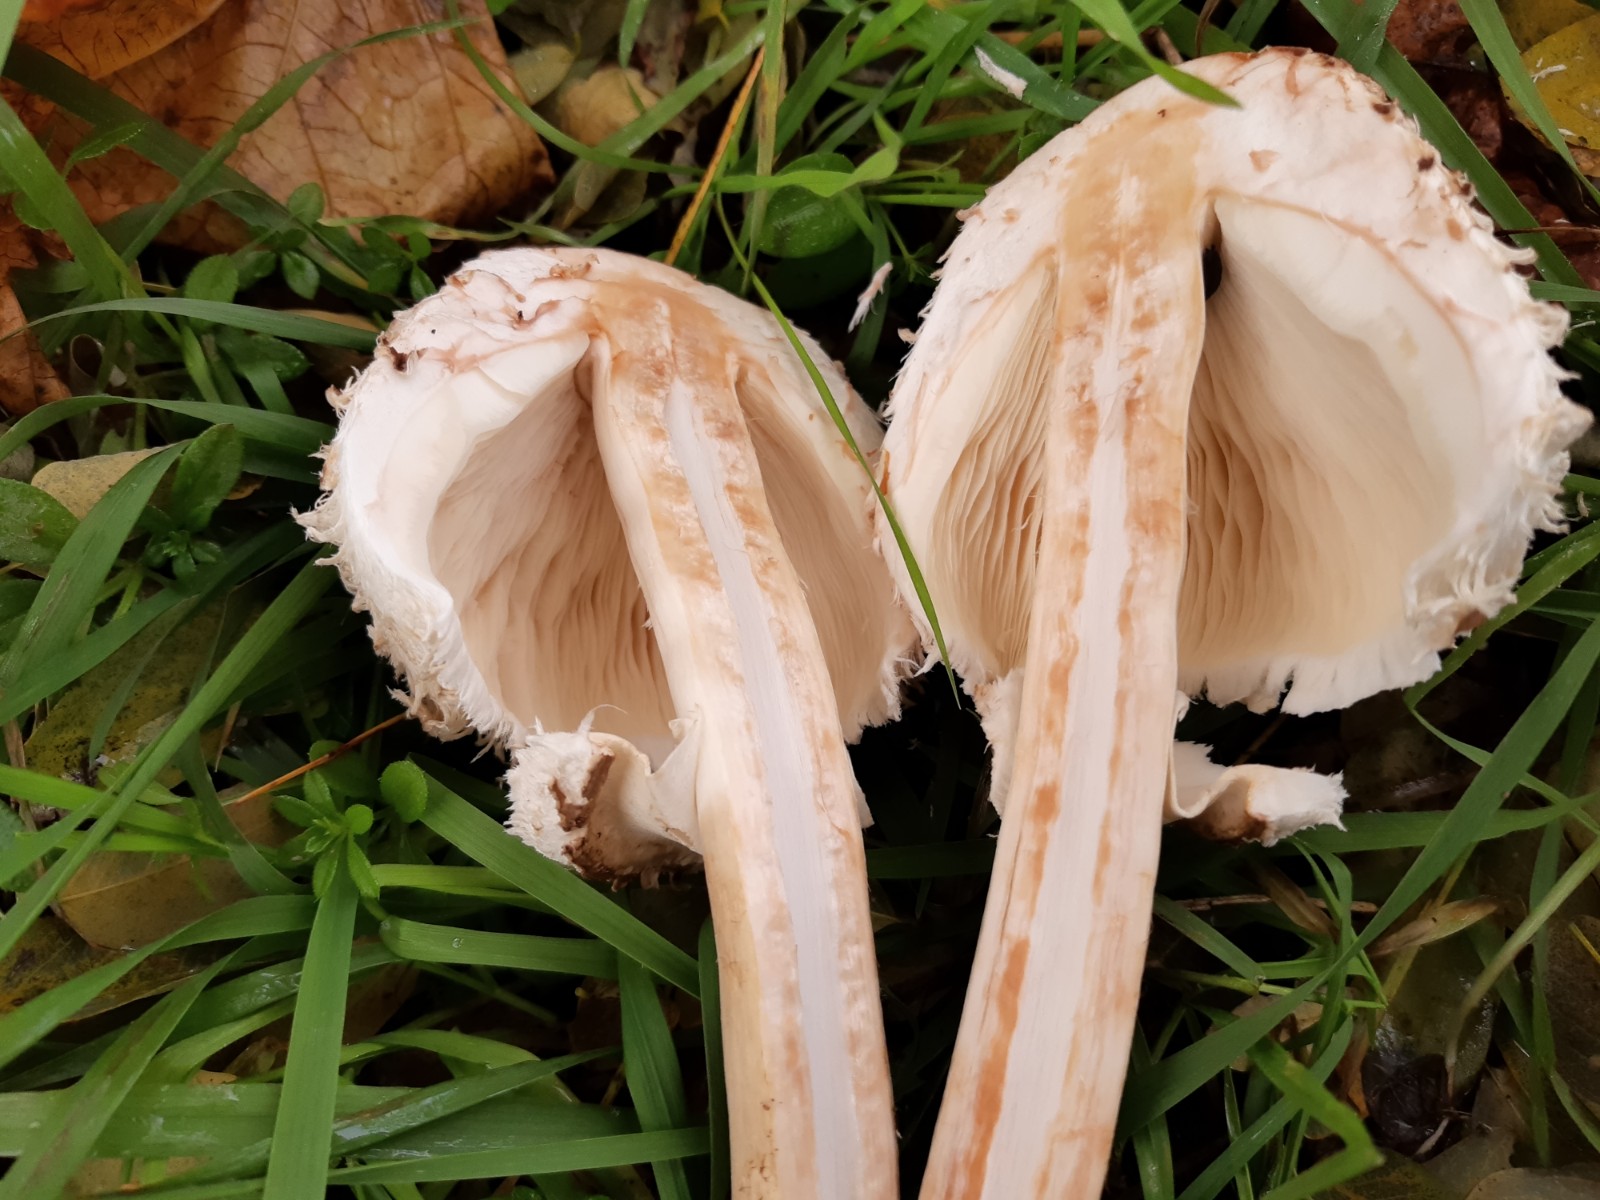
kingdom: Fungi
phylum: Basidiomycota
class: Agaricomycetes
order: Agaricales
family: Agaricaceae
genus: Chlorophyllum
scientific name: Chlorophyllum rhacodes
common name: ægte rabarberhat
